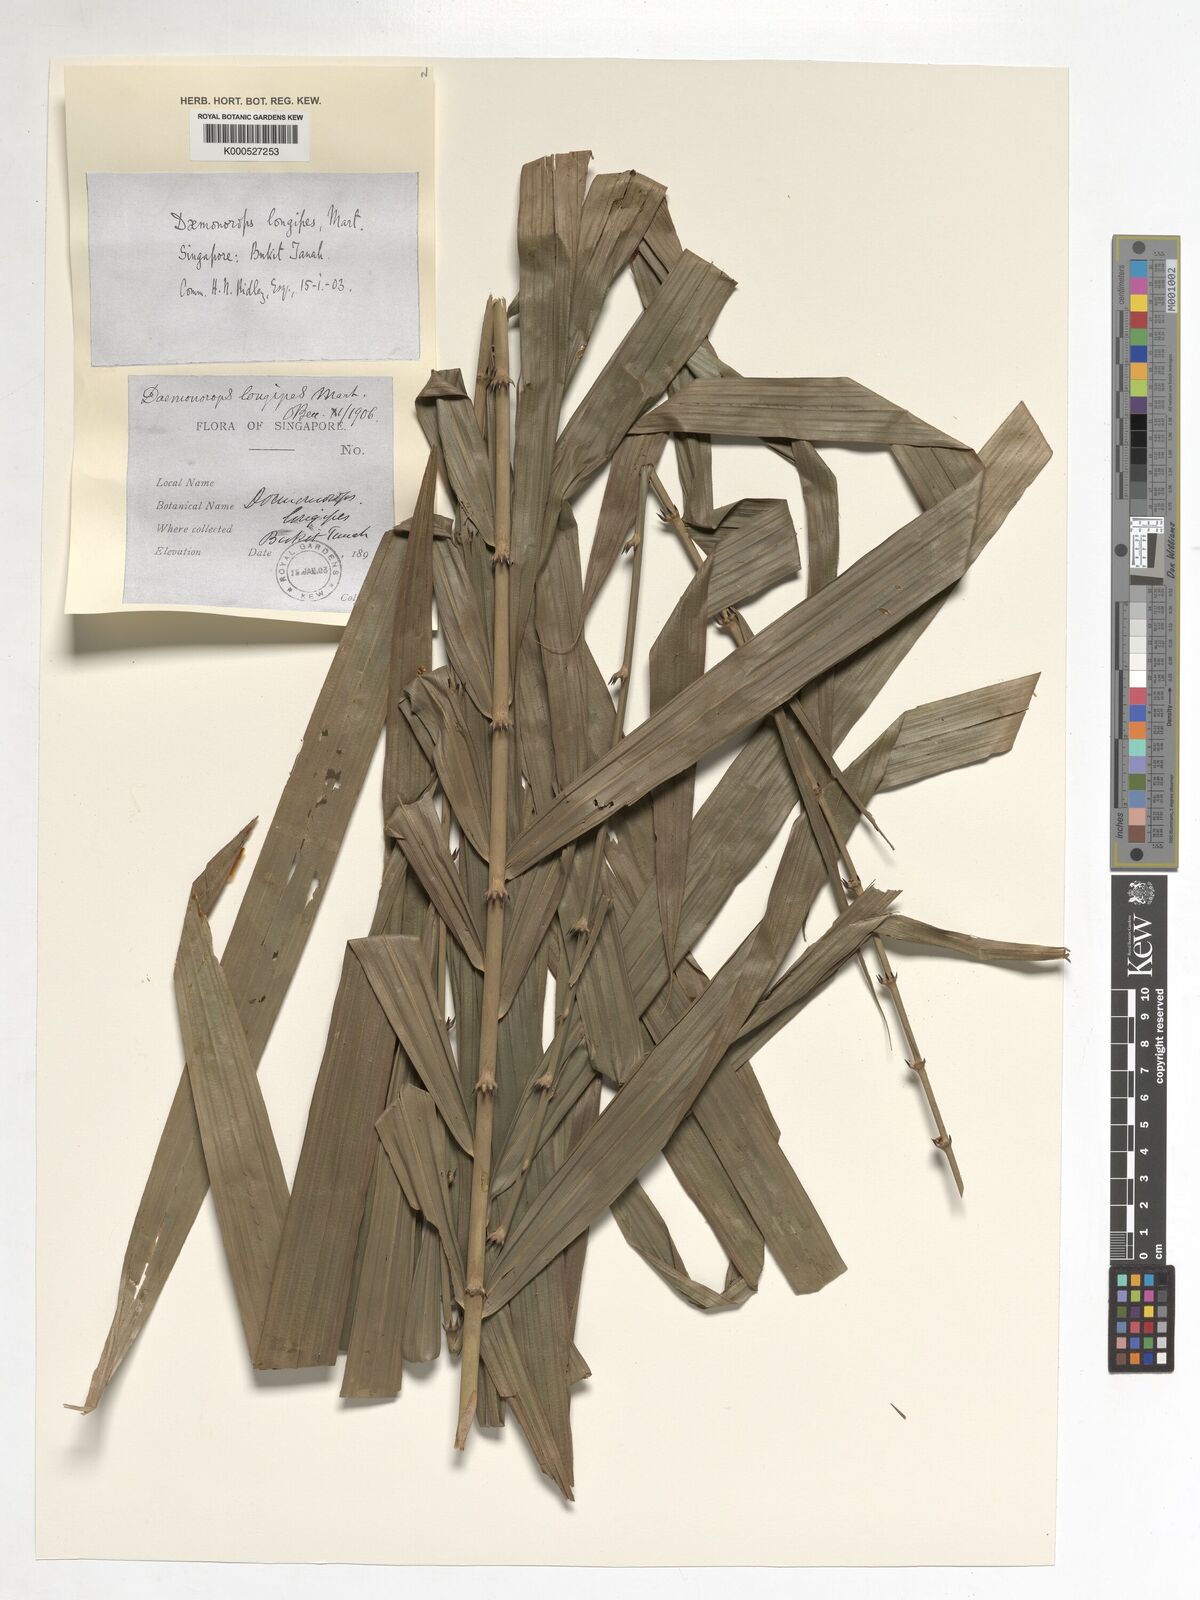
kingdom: Plantae
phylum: Tracheophyta
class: Liliopsida
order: Arecales
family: Arecaceae
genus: Calamus
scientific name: Calamus longipes
